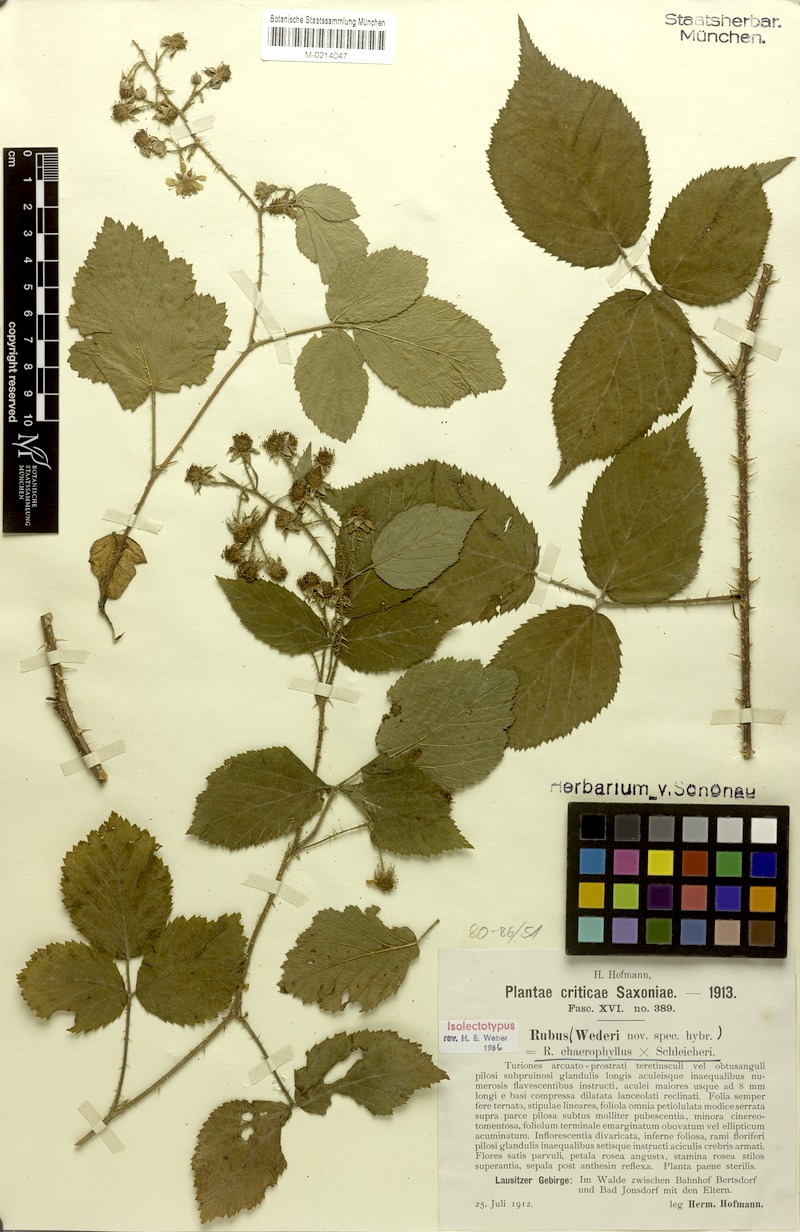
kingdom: Plantae
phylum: Tracheophyta
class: Magnoliopsida
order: Rosales
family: Rosaceae
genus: Rubus
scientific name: Rubus
